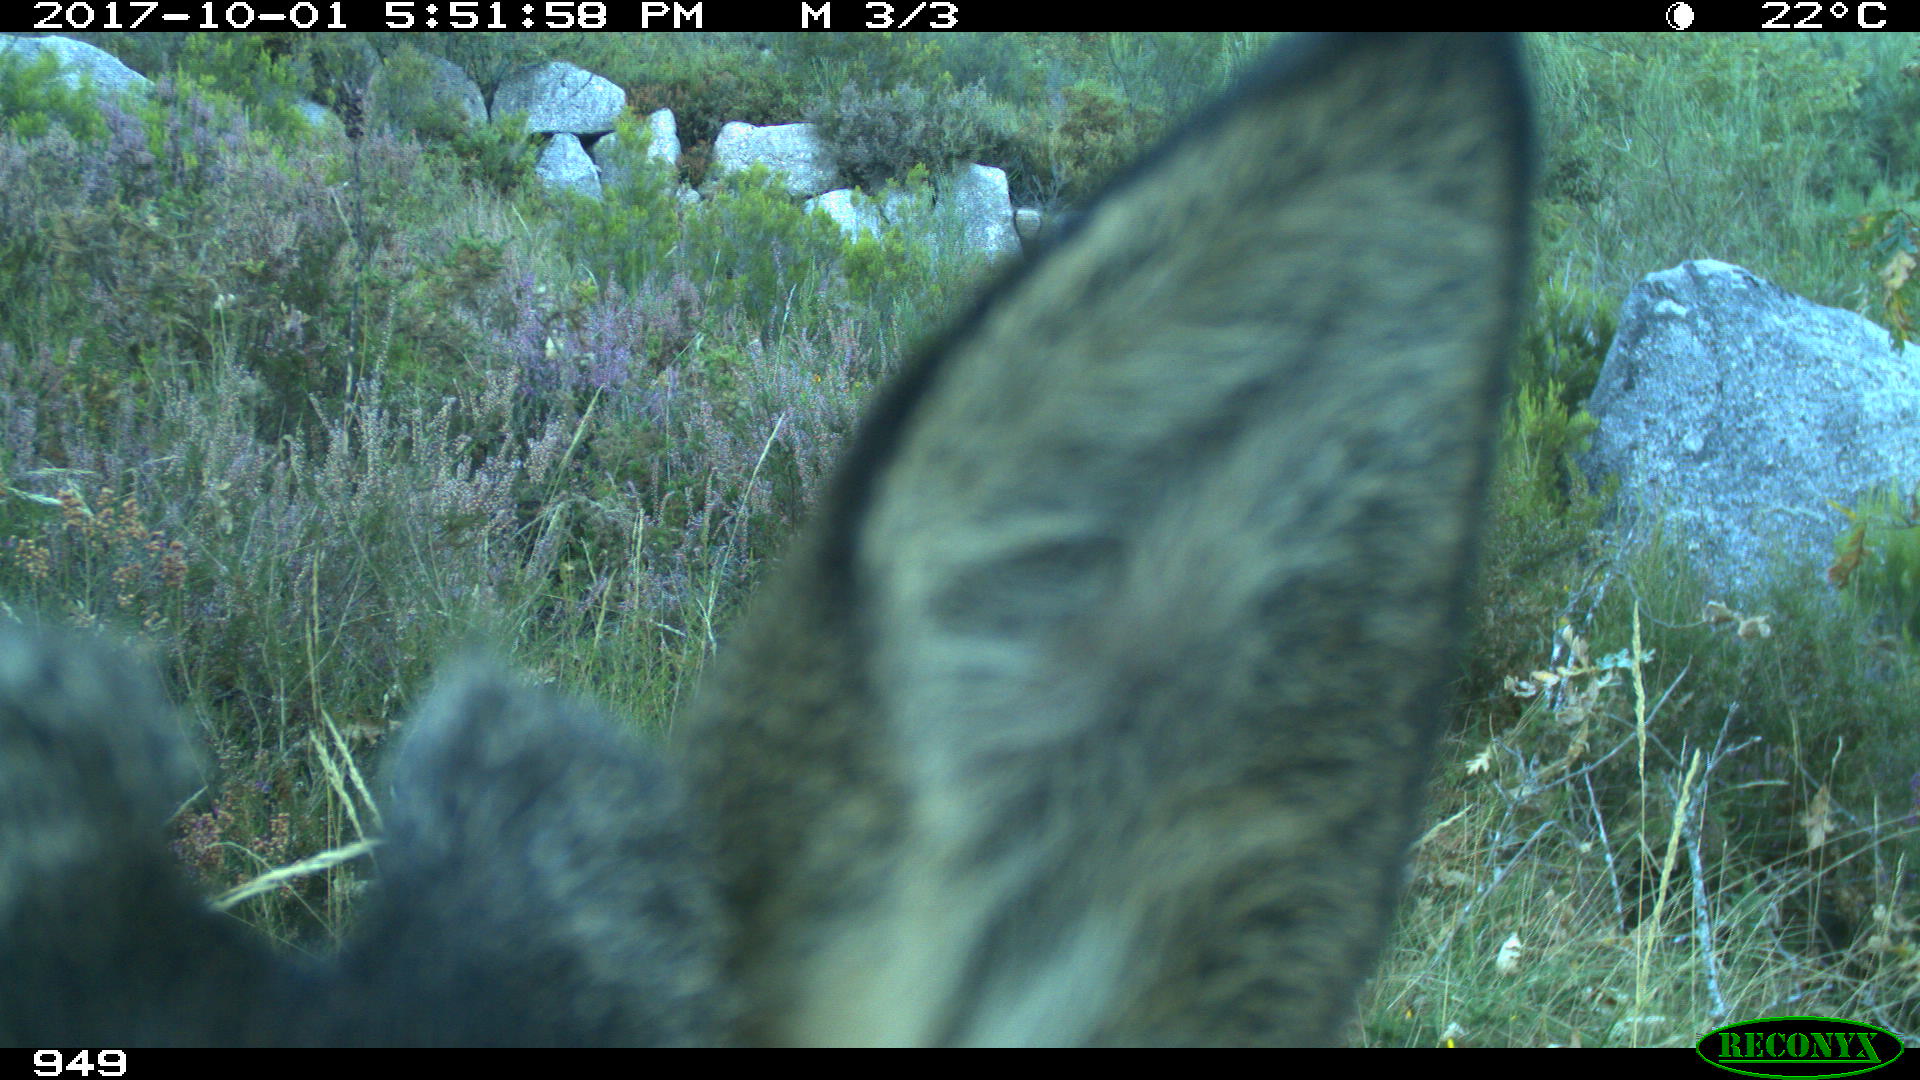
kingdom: Animalia
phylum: Chordata
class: Mammalia
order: Artiodactyla
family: Cervidae
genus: Capreolus
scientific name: Capreolus capreolus
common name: Western roe deer
